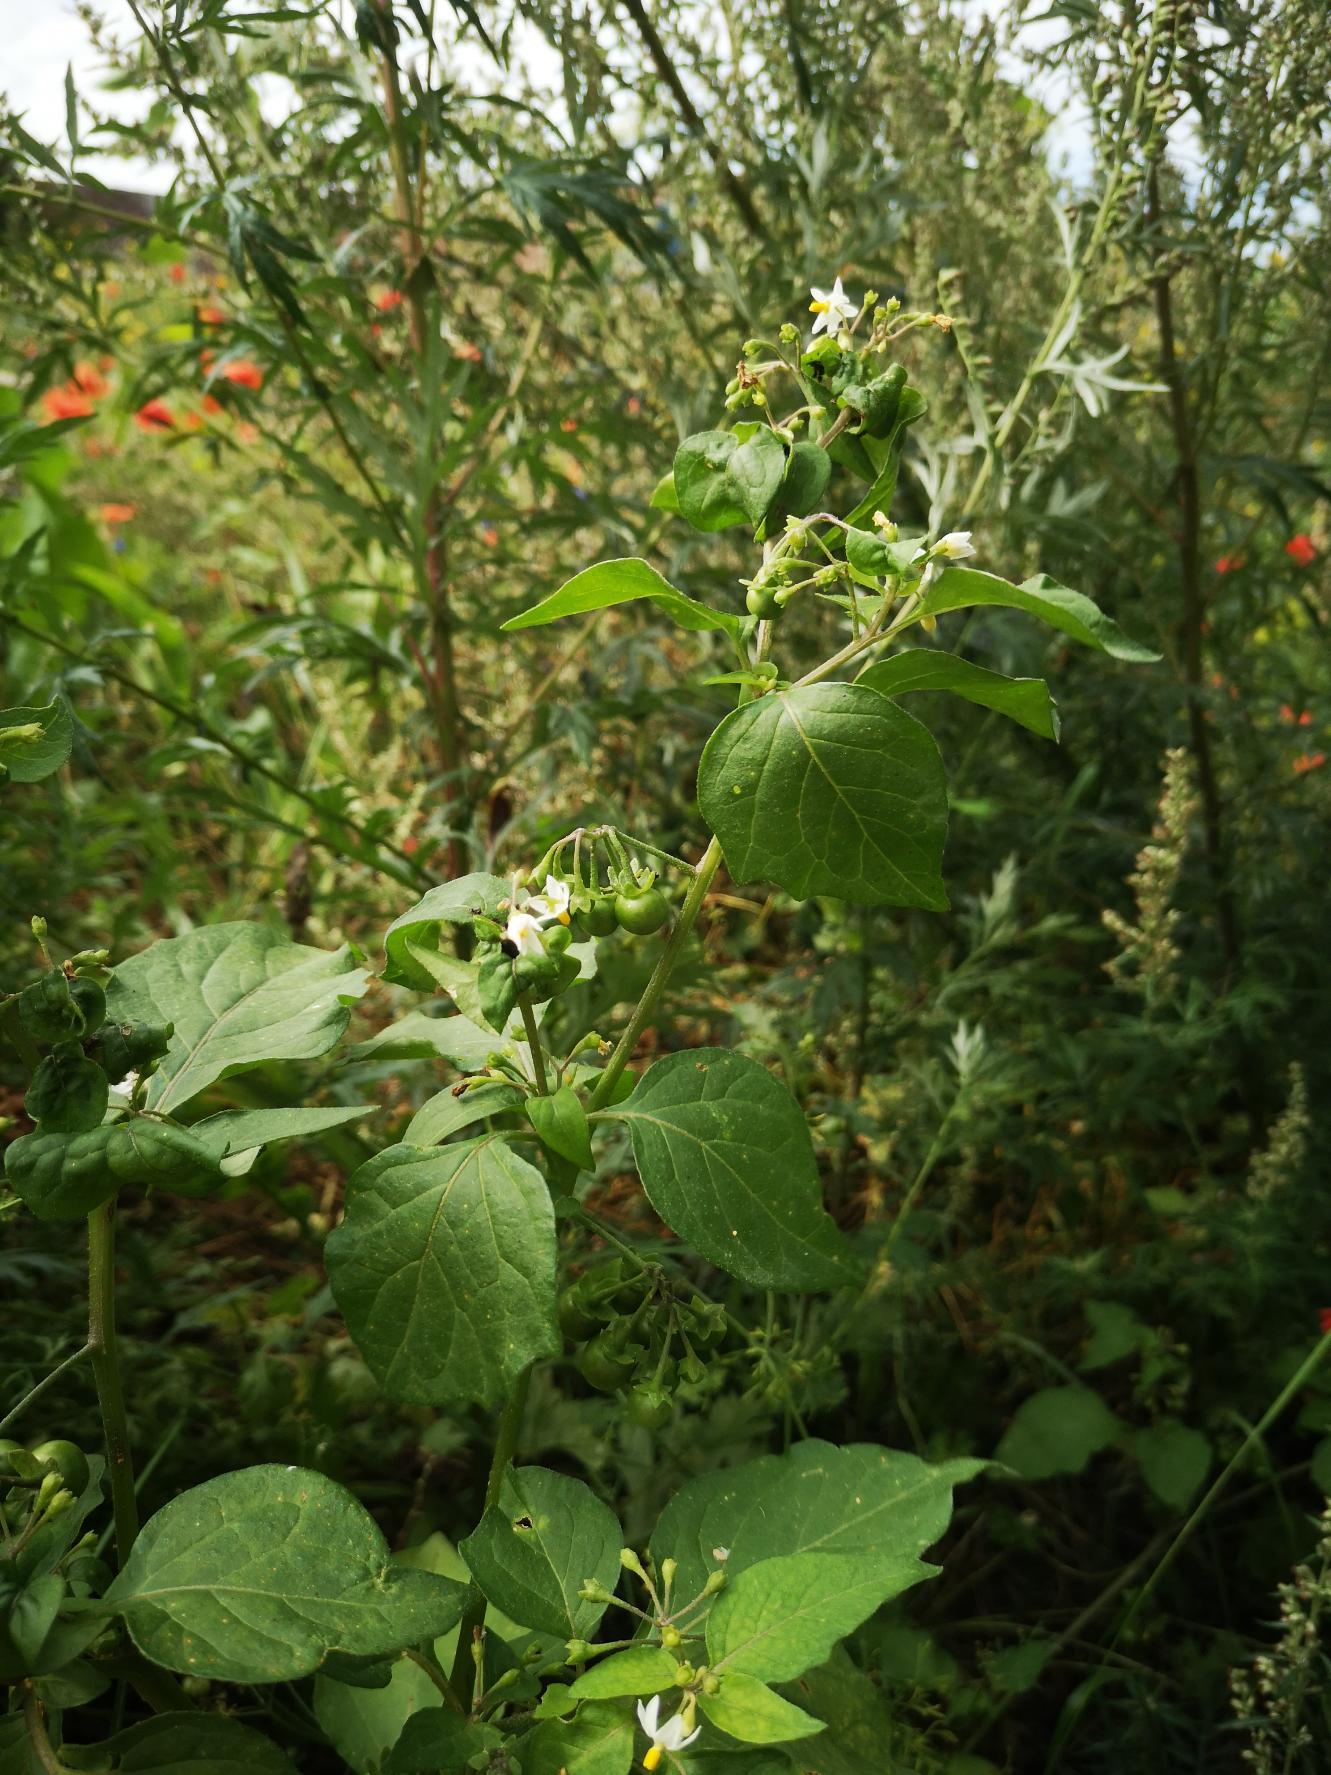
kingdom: Plantae
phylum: Tracheophyta
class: Magnoliopsida
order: Solanales
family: Solanaceae
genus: Solanum
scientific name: Solanum nigrum
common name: Sort natskygge (underart)
